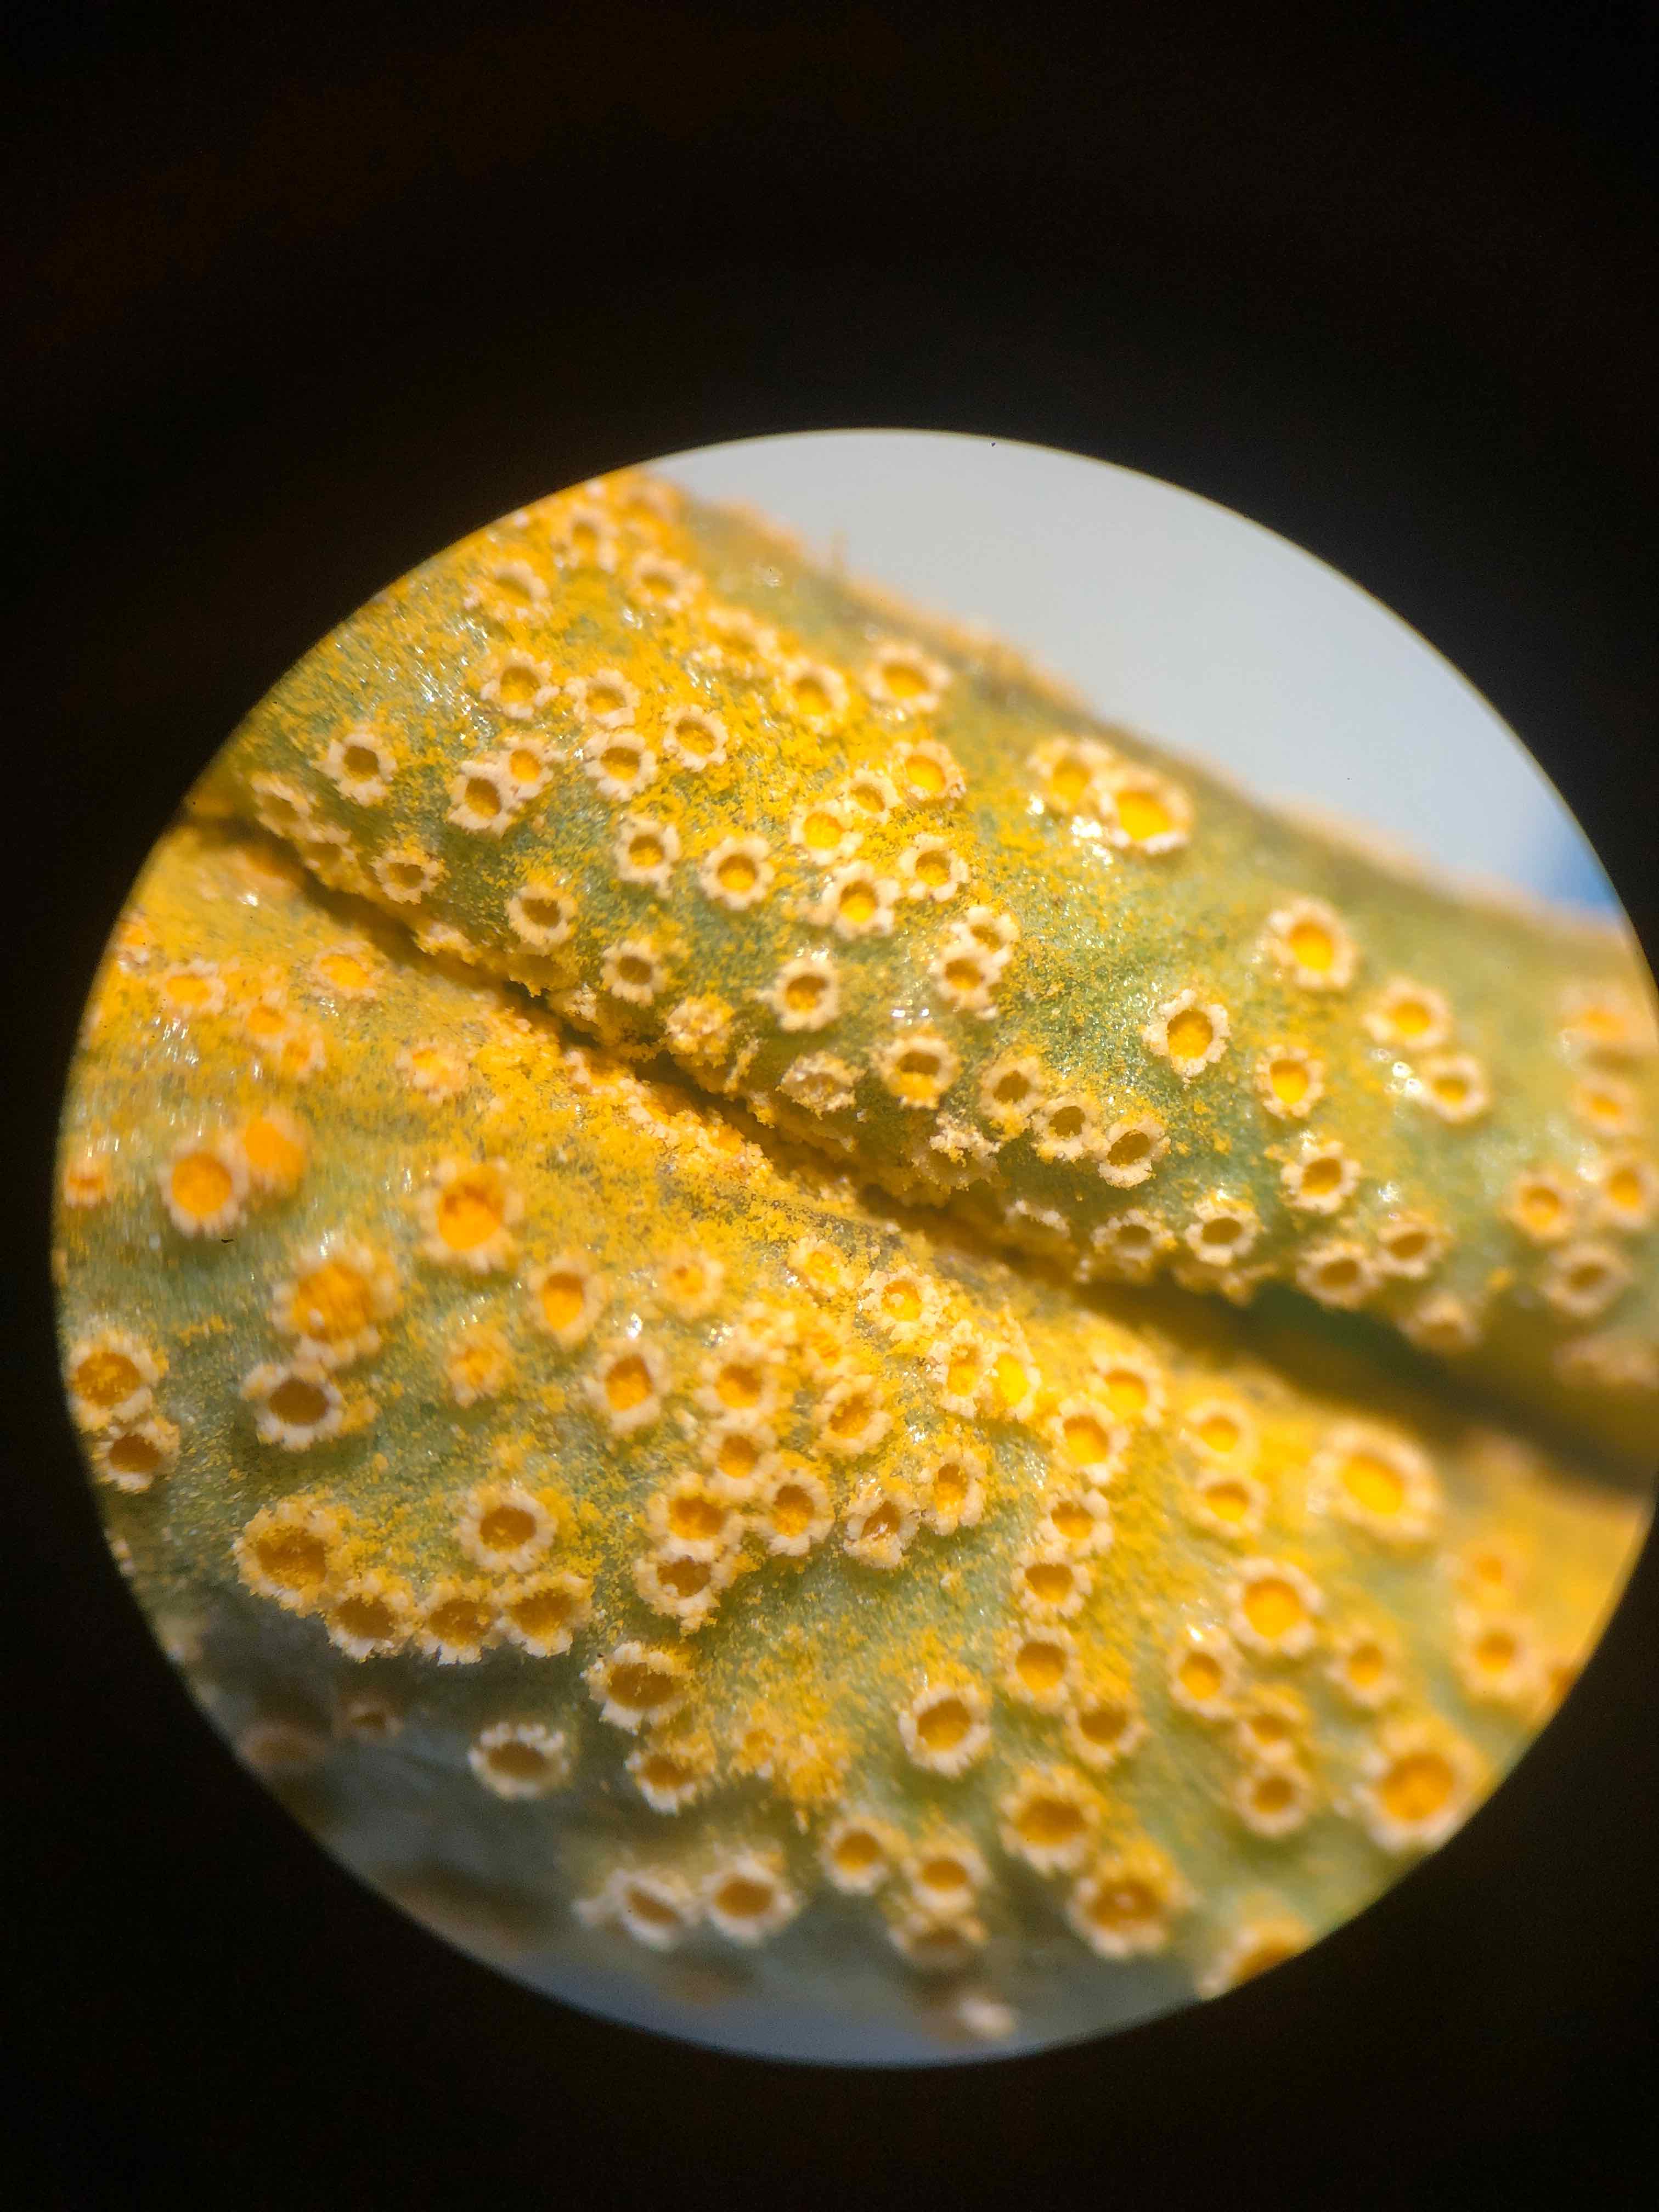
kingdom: Fungi
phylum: Basidiomycota
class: Pucciniomycetes
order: Pucciniales
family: Pucciniaceae
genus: Puccinia
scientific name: Puccinia violae
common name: viol-tvecellerust
